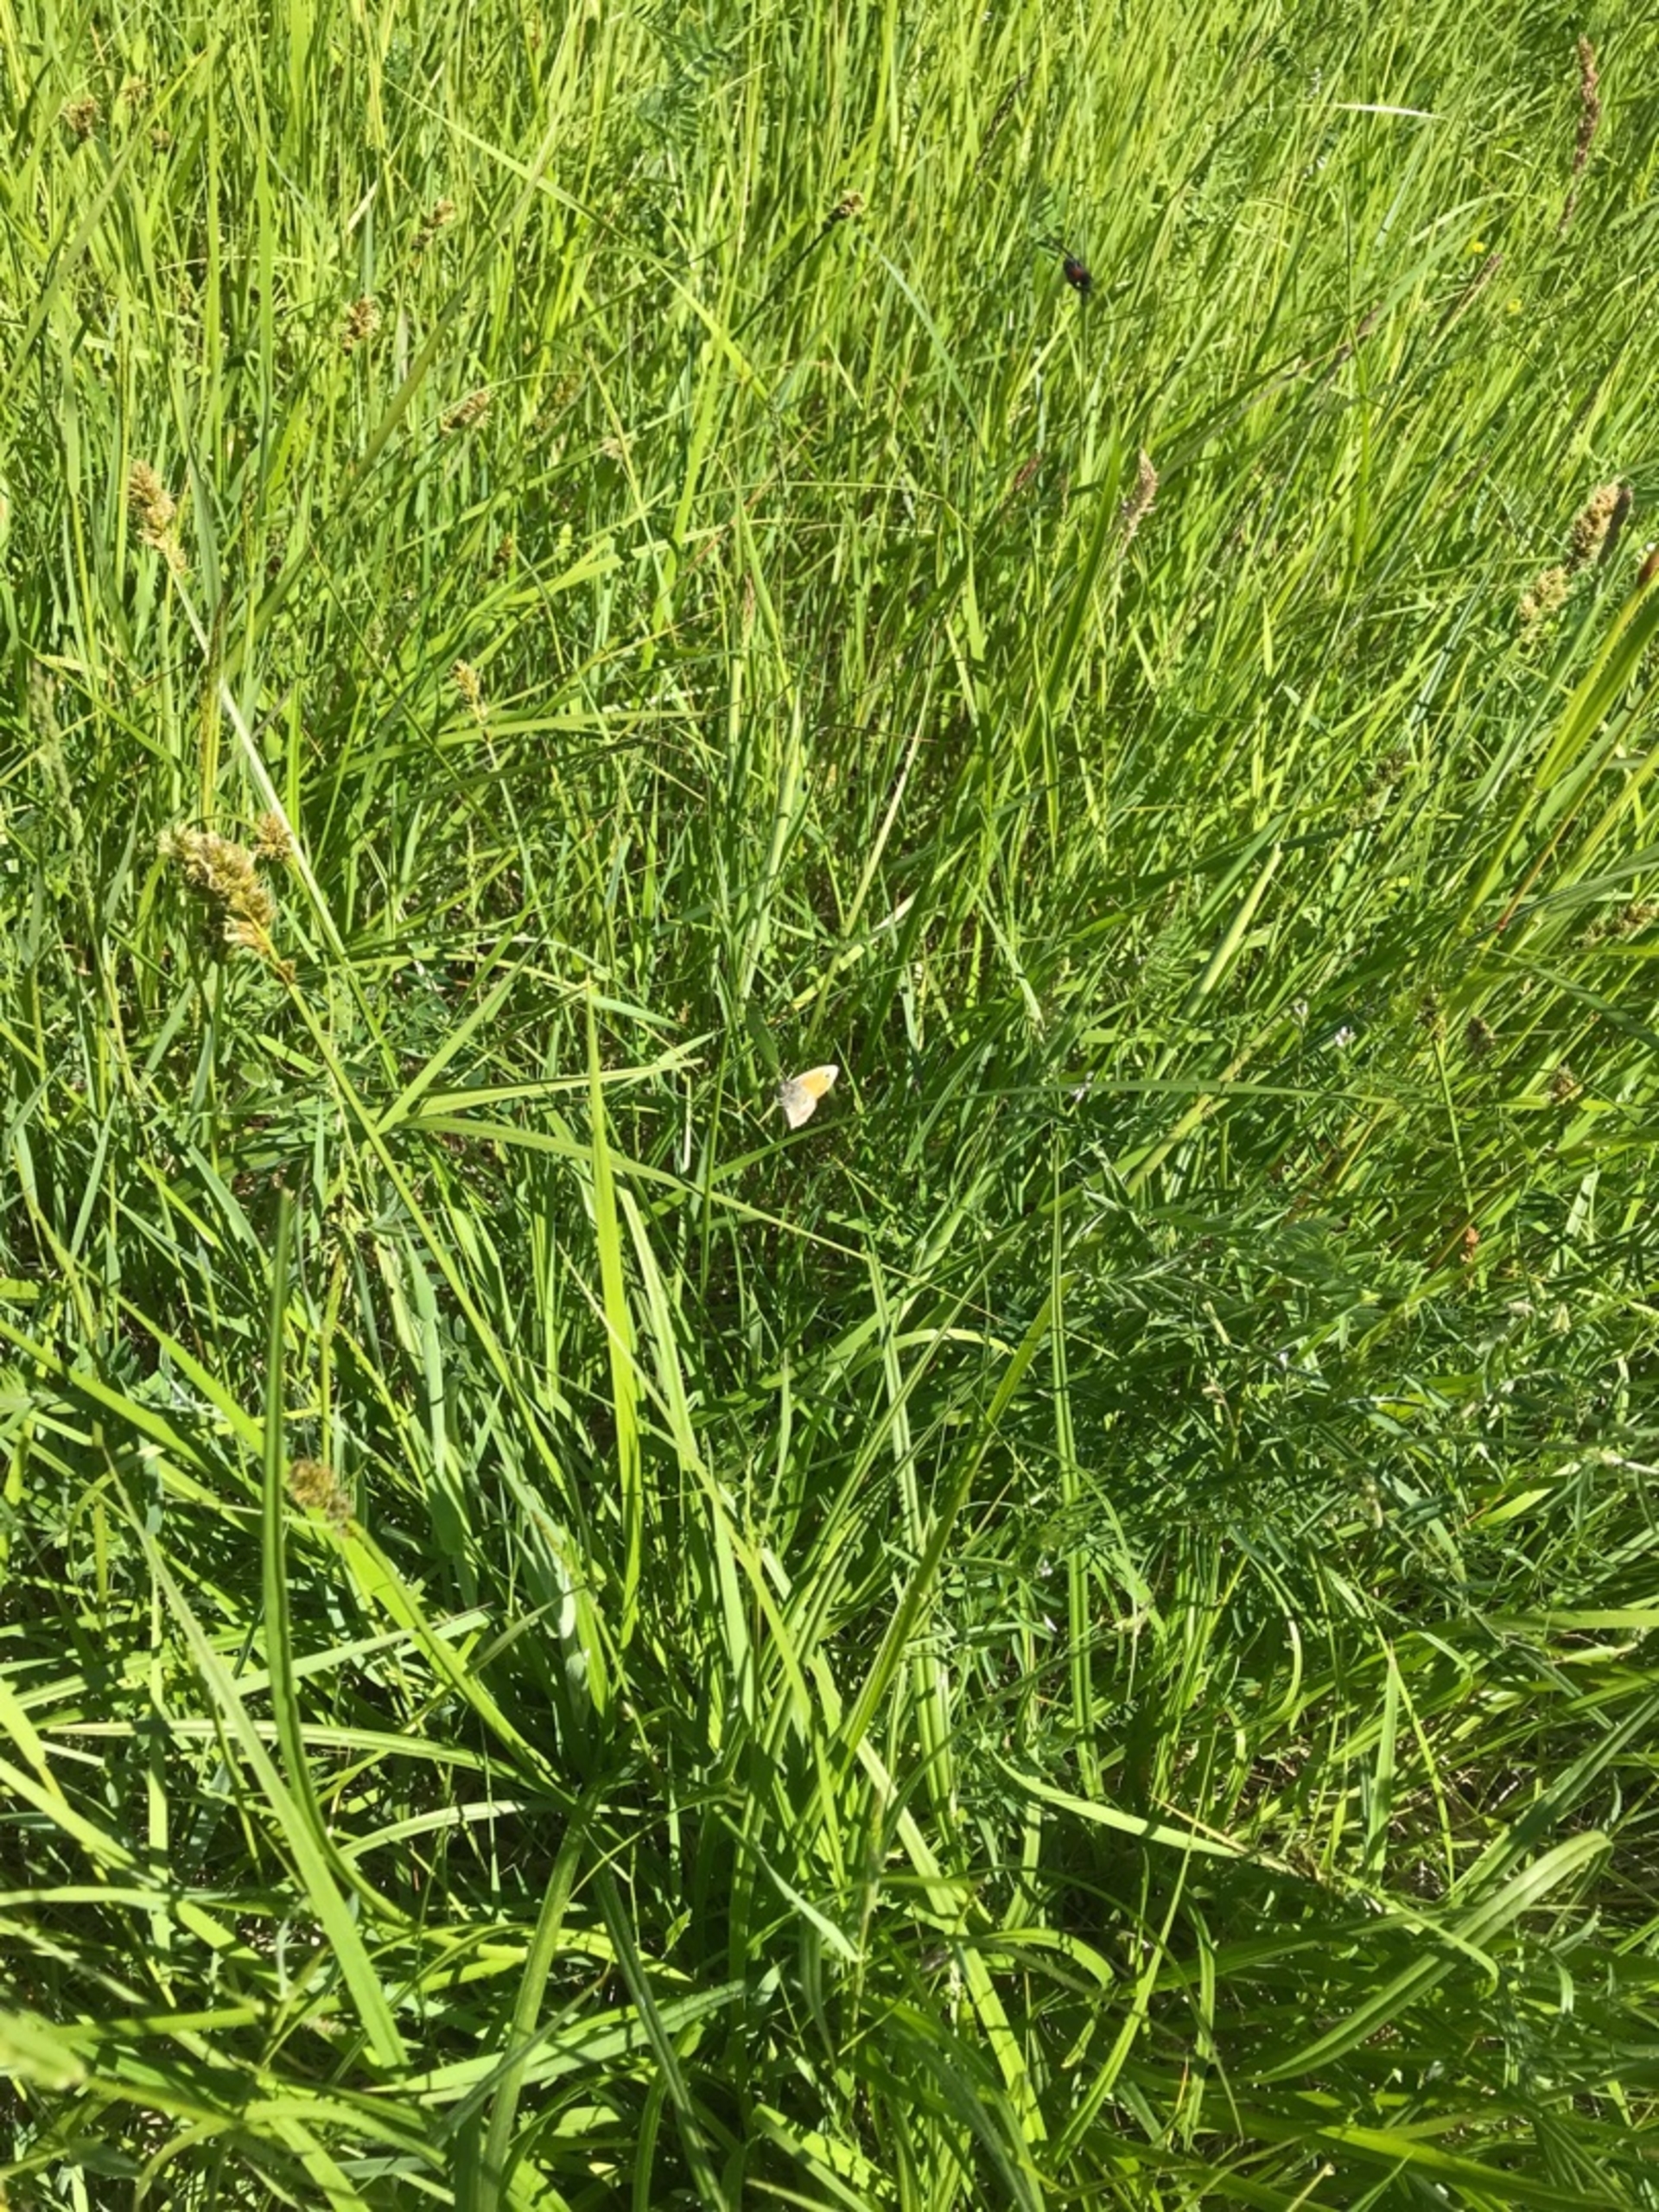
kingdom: Animalia
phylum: Arthropoda
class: Insecta
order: Lepidoptera
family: Nymphalidae
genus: Coenonympha
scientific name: Coenonympha pamphilus
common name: Okkergul randøje
